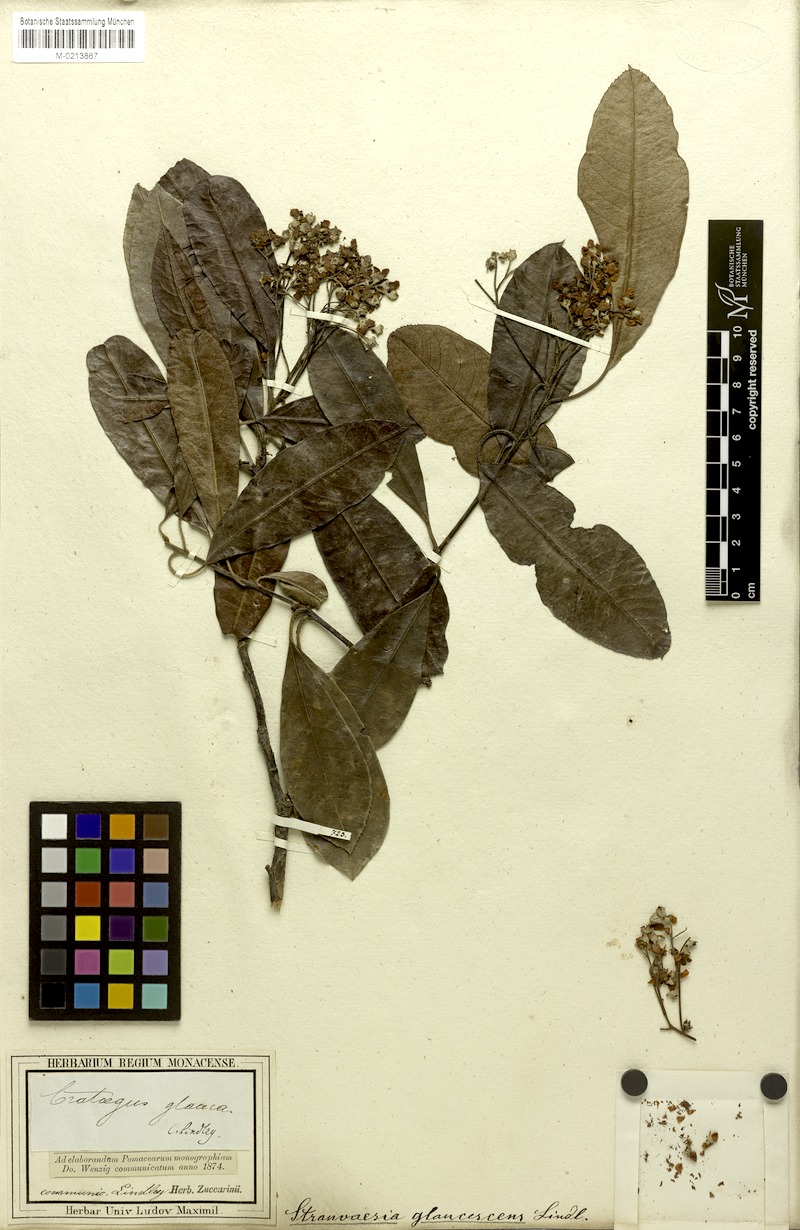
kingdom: Plantae
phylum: Tracheophyta
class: Magnoliopsida
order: Rosales
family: Rosaceae
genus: Stranvaesia
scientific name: Stranvaesia nussia
